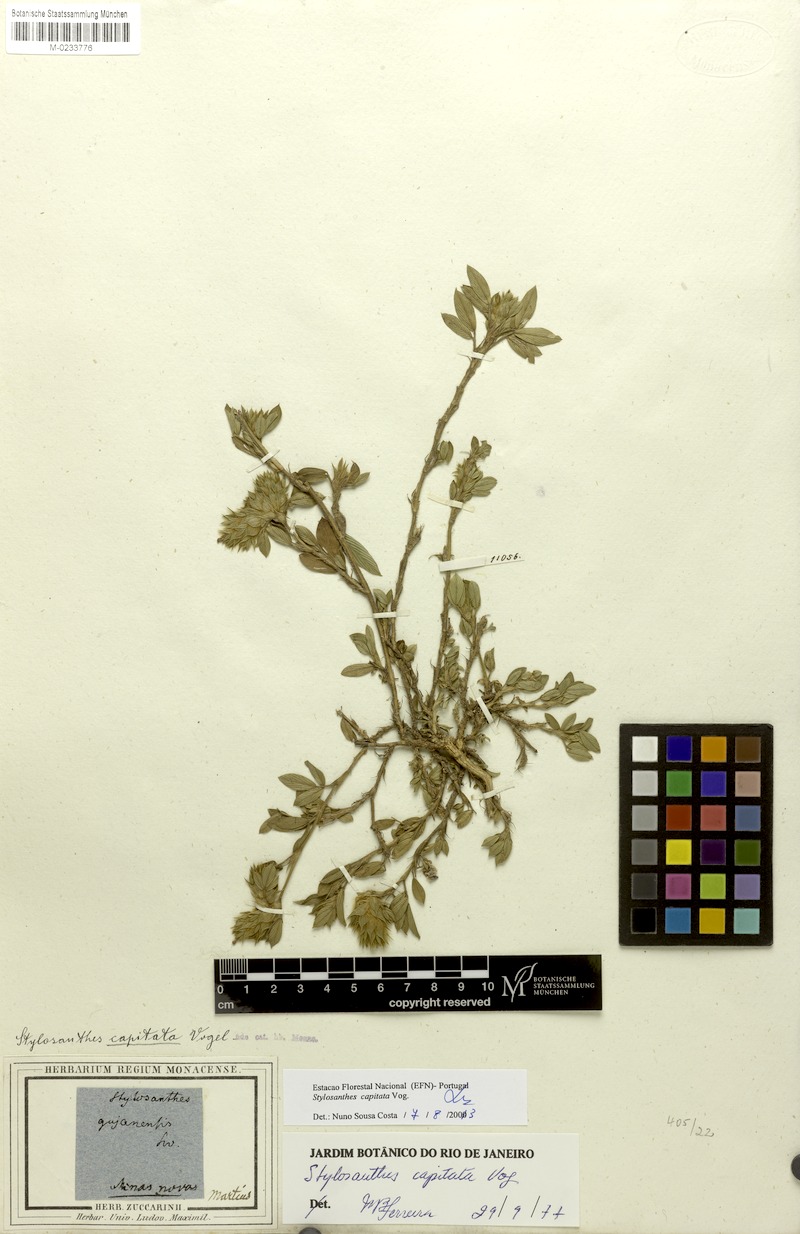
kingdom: Plantae
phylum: Tracheophyta
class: Magnoliopsida
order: Fabales
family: Fabaceae
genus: Stylosanthes
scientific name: Stylosanthes capitata
